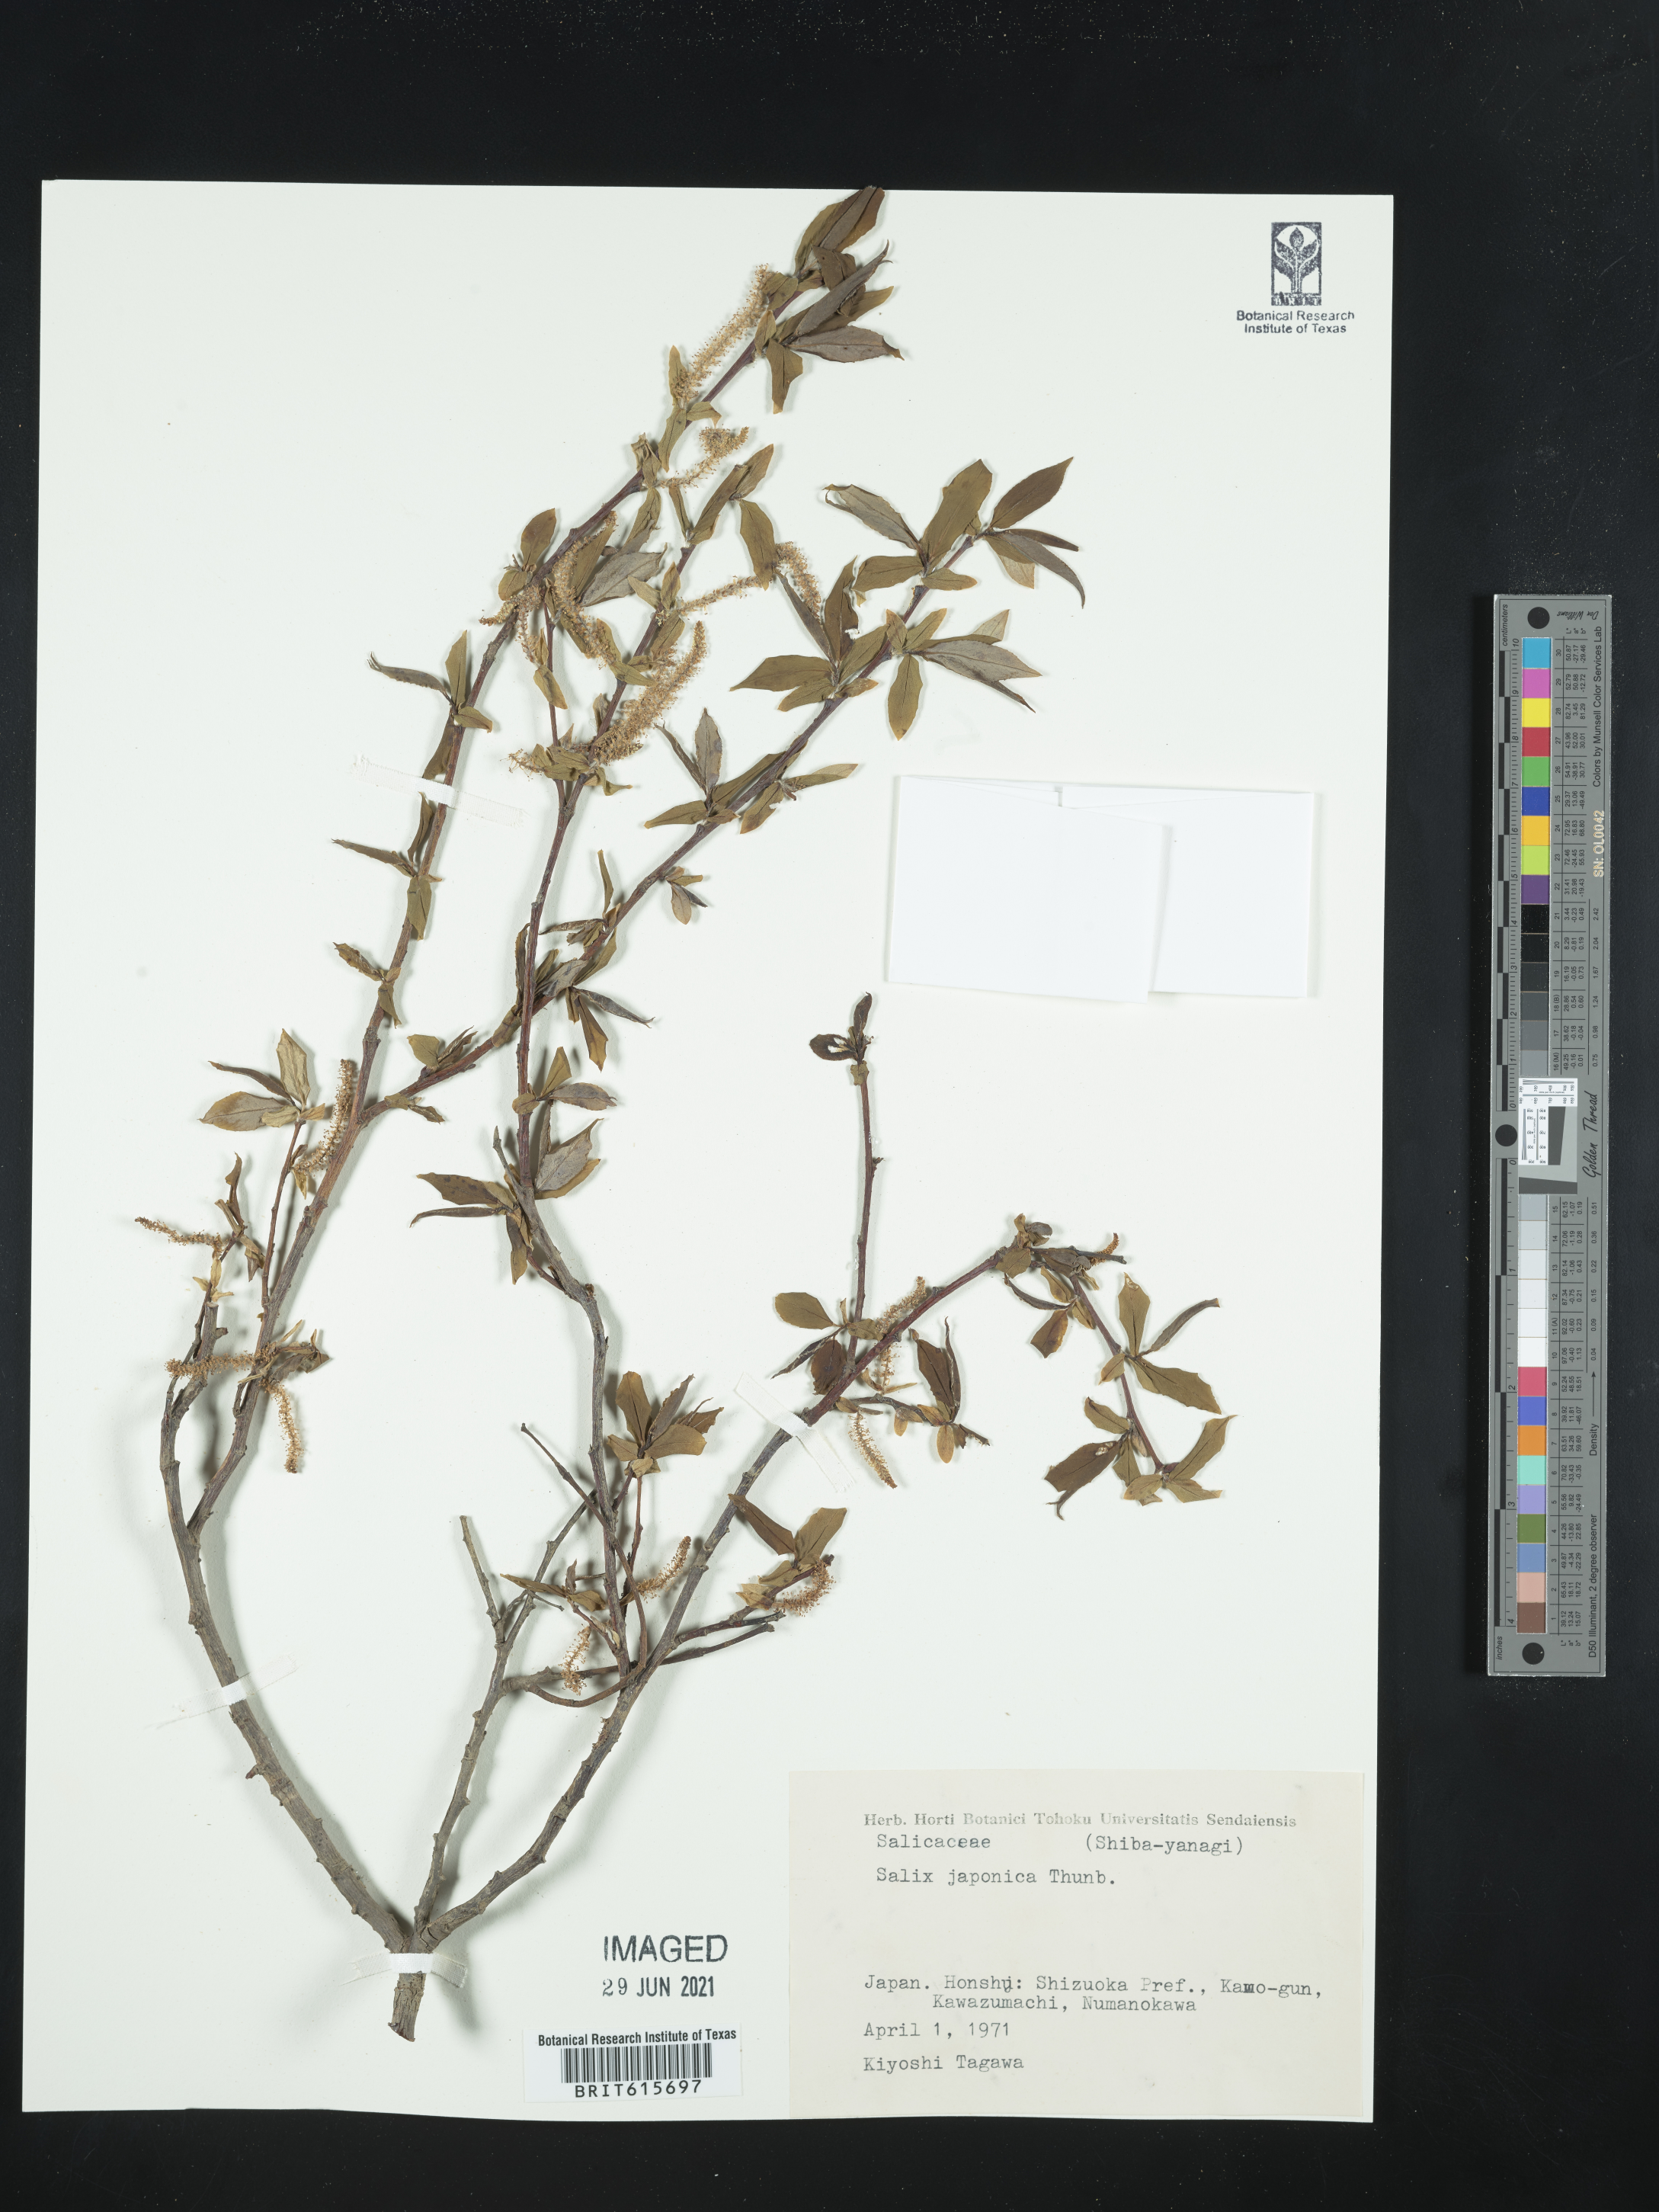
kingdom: Plantae
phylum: Tracheophyta
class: Magnoliopsida
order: Malpighiales
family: Salicaceae
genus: Salix
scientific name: Salix japonica
